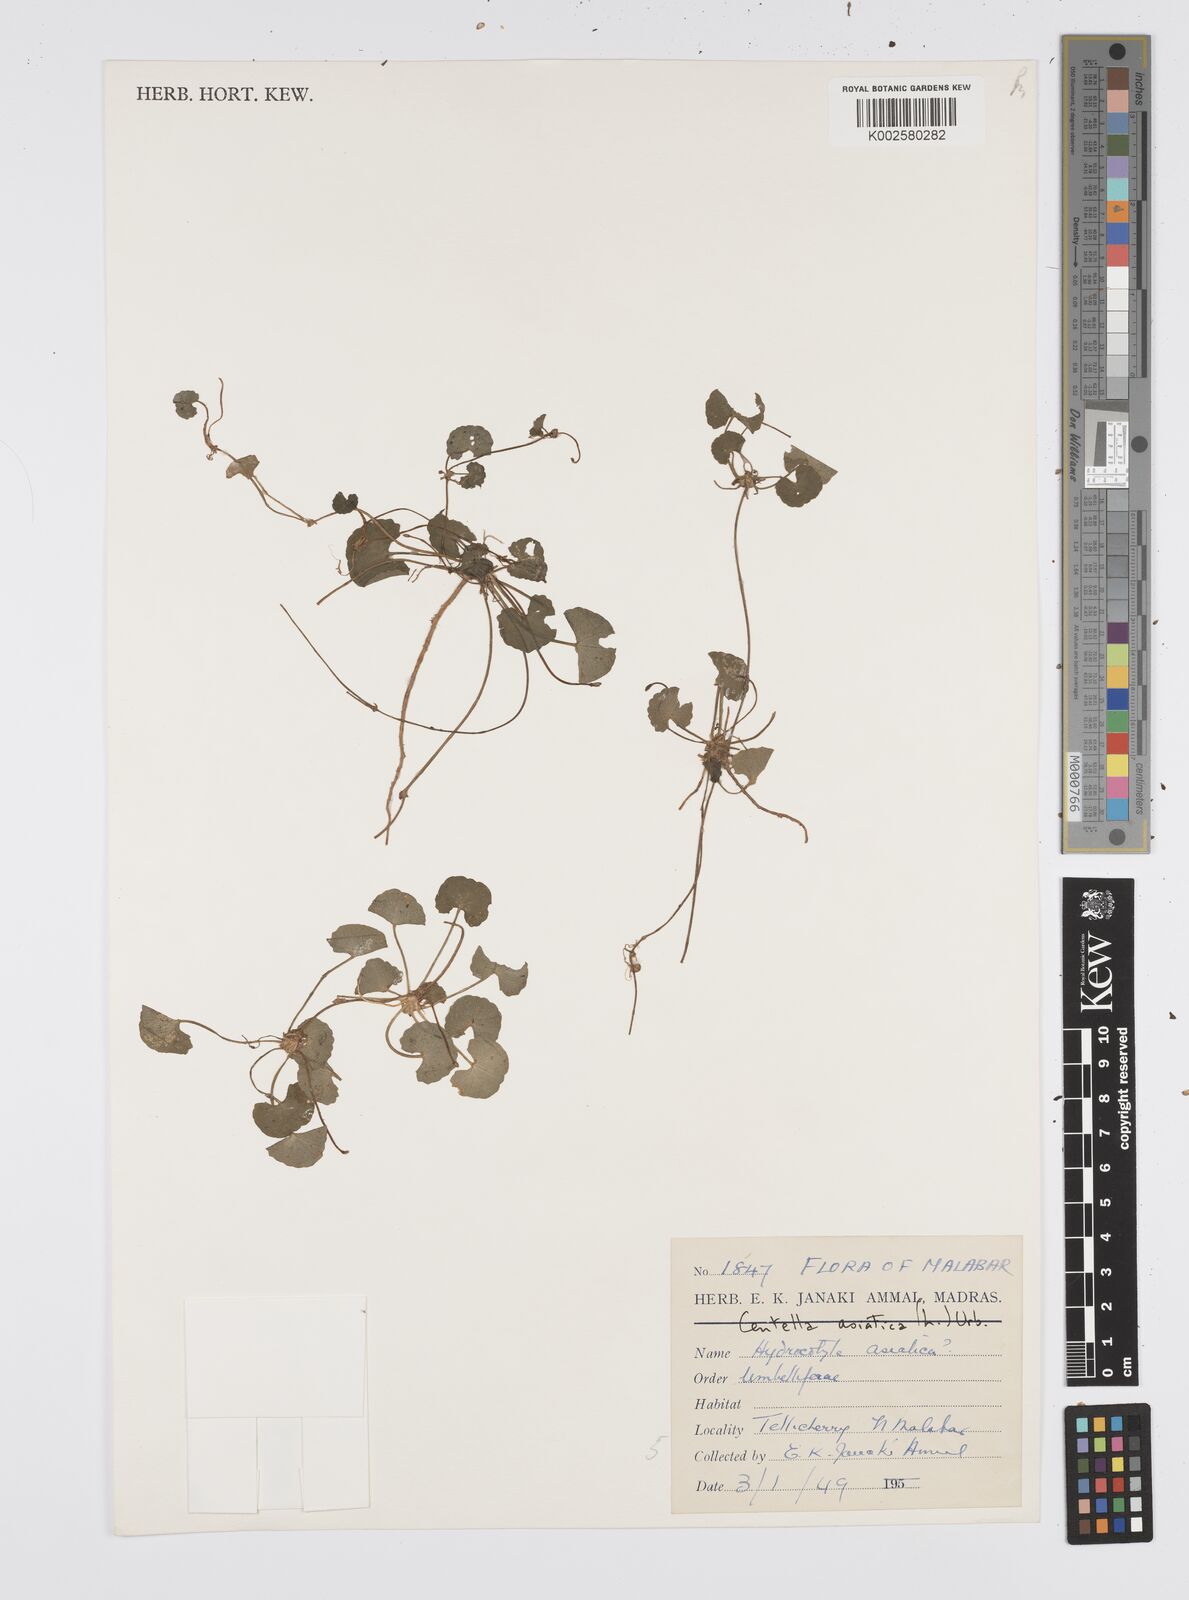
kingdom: Plantae
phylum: Tracheophyta
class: Magnoliopsida
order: Apiales
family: Apiaceae
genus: Centella
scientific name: Centella asiatica
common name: Spadeleaf
